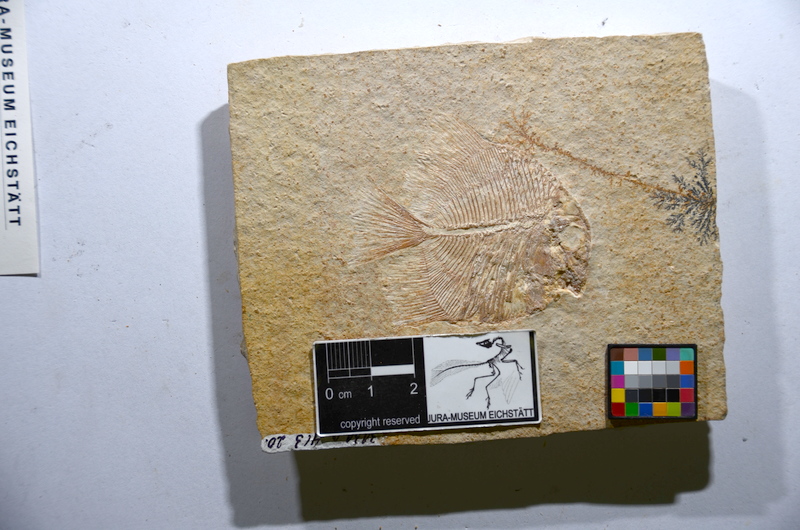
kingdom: Animalia
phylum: Chordata
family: Pycnodontidae
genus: Turbomesodon
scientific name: Turbomesodon relegans
